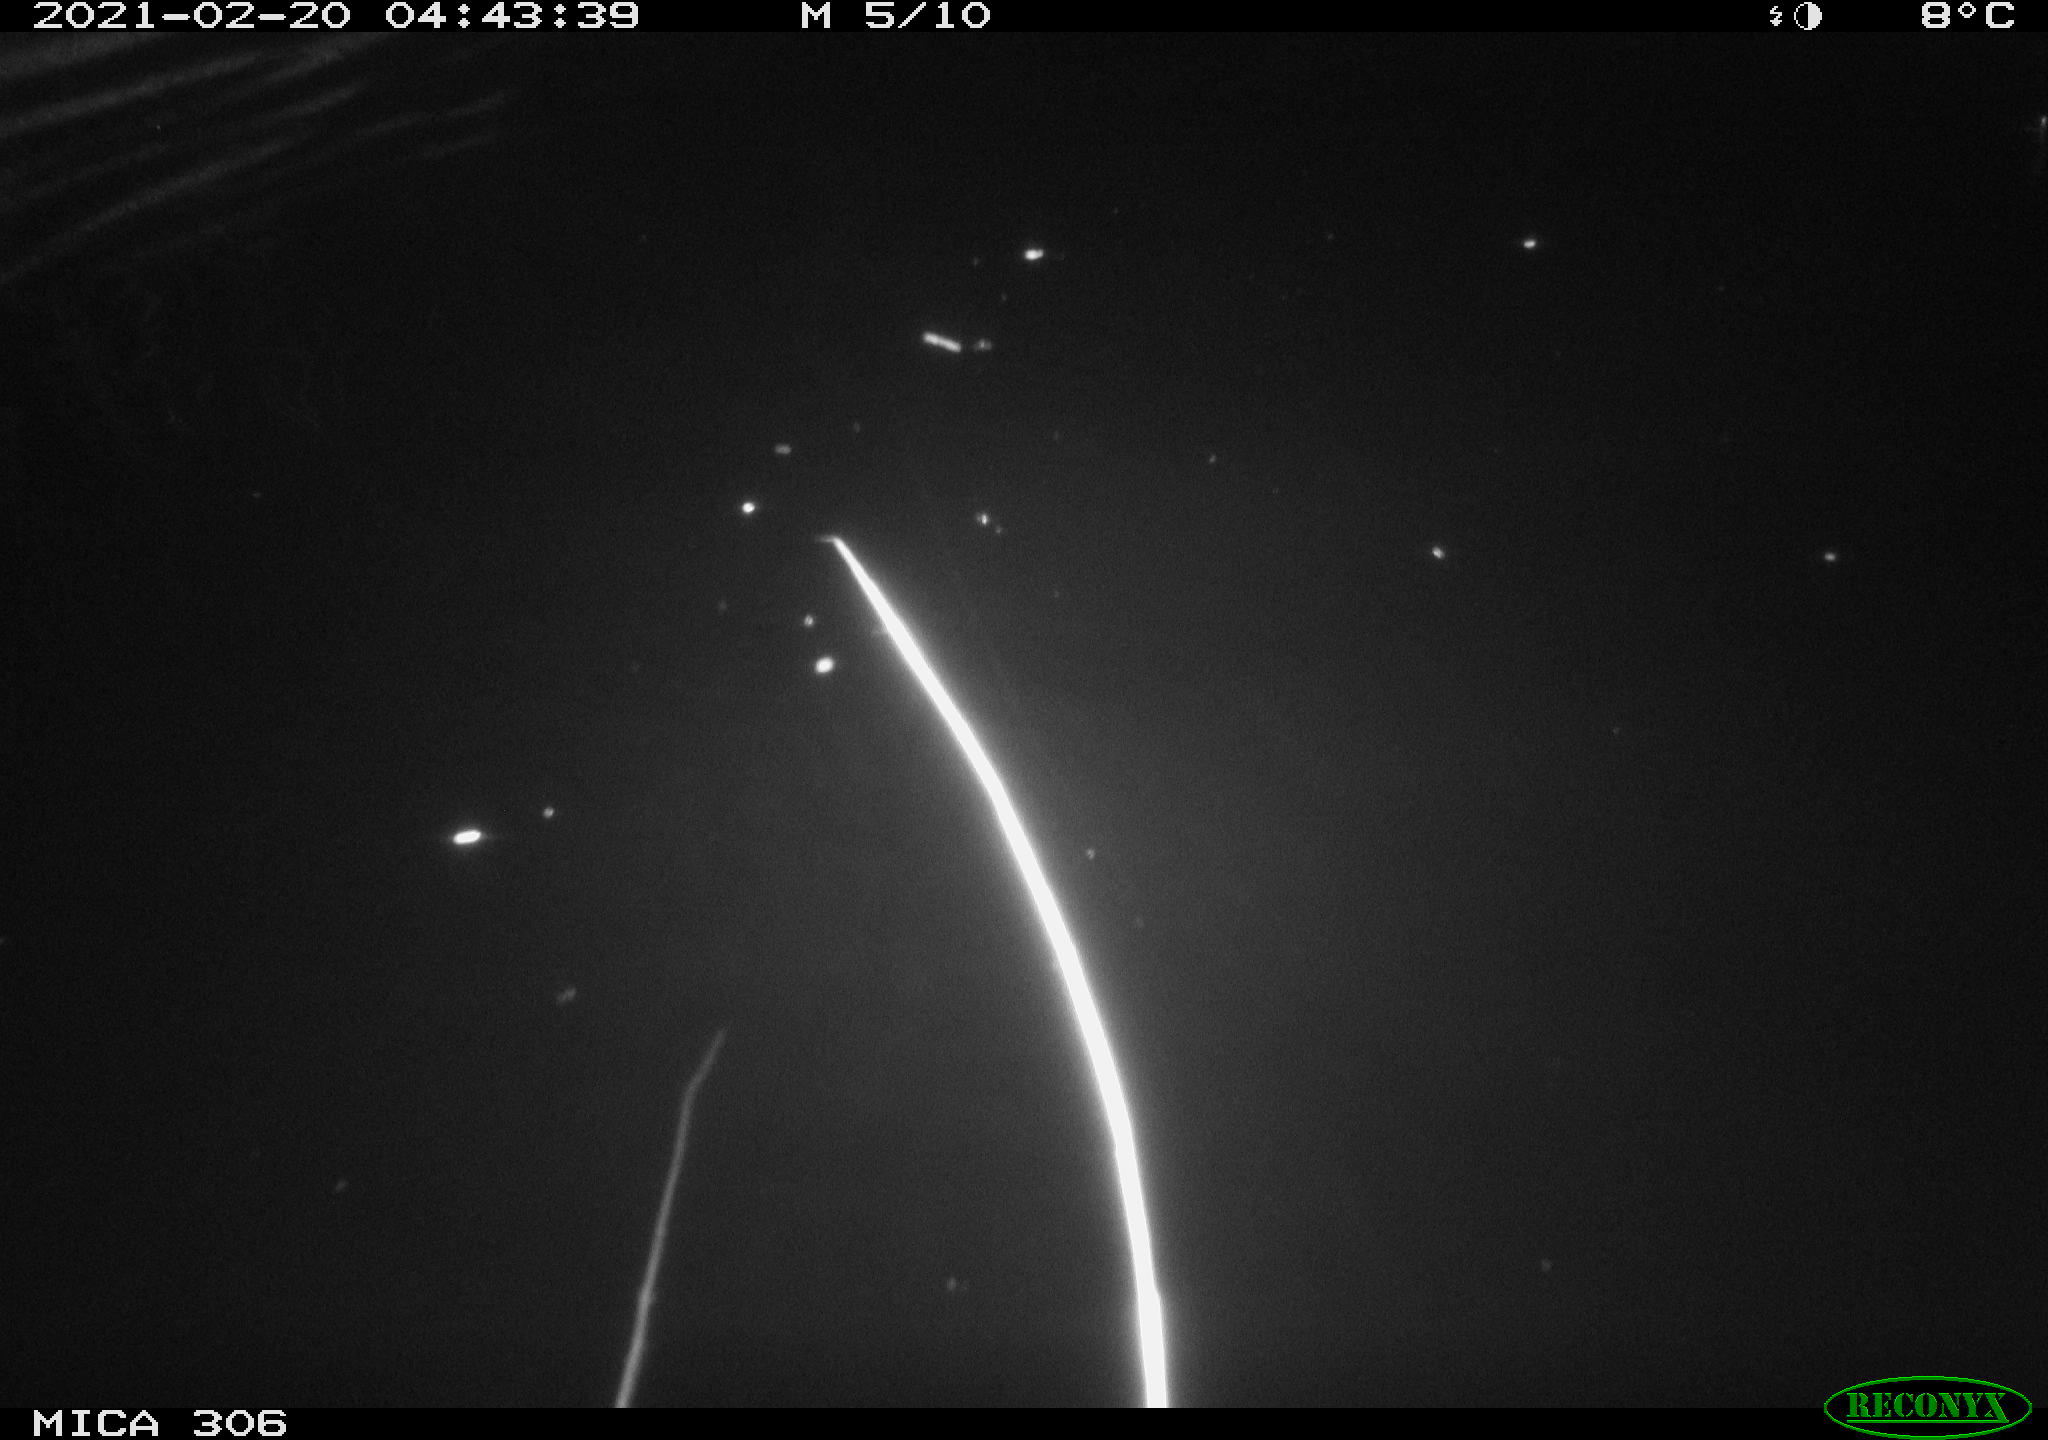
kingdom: Animalia
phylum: Chordata
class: Mammalia
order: Rodentia
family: Cricetidae
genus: Ondatra
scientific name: Ondatra zibethicus
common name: Muskrat
